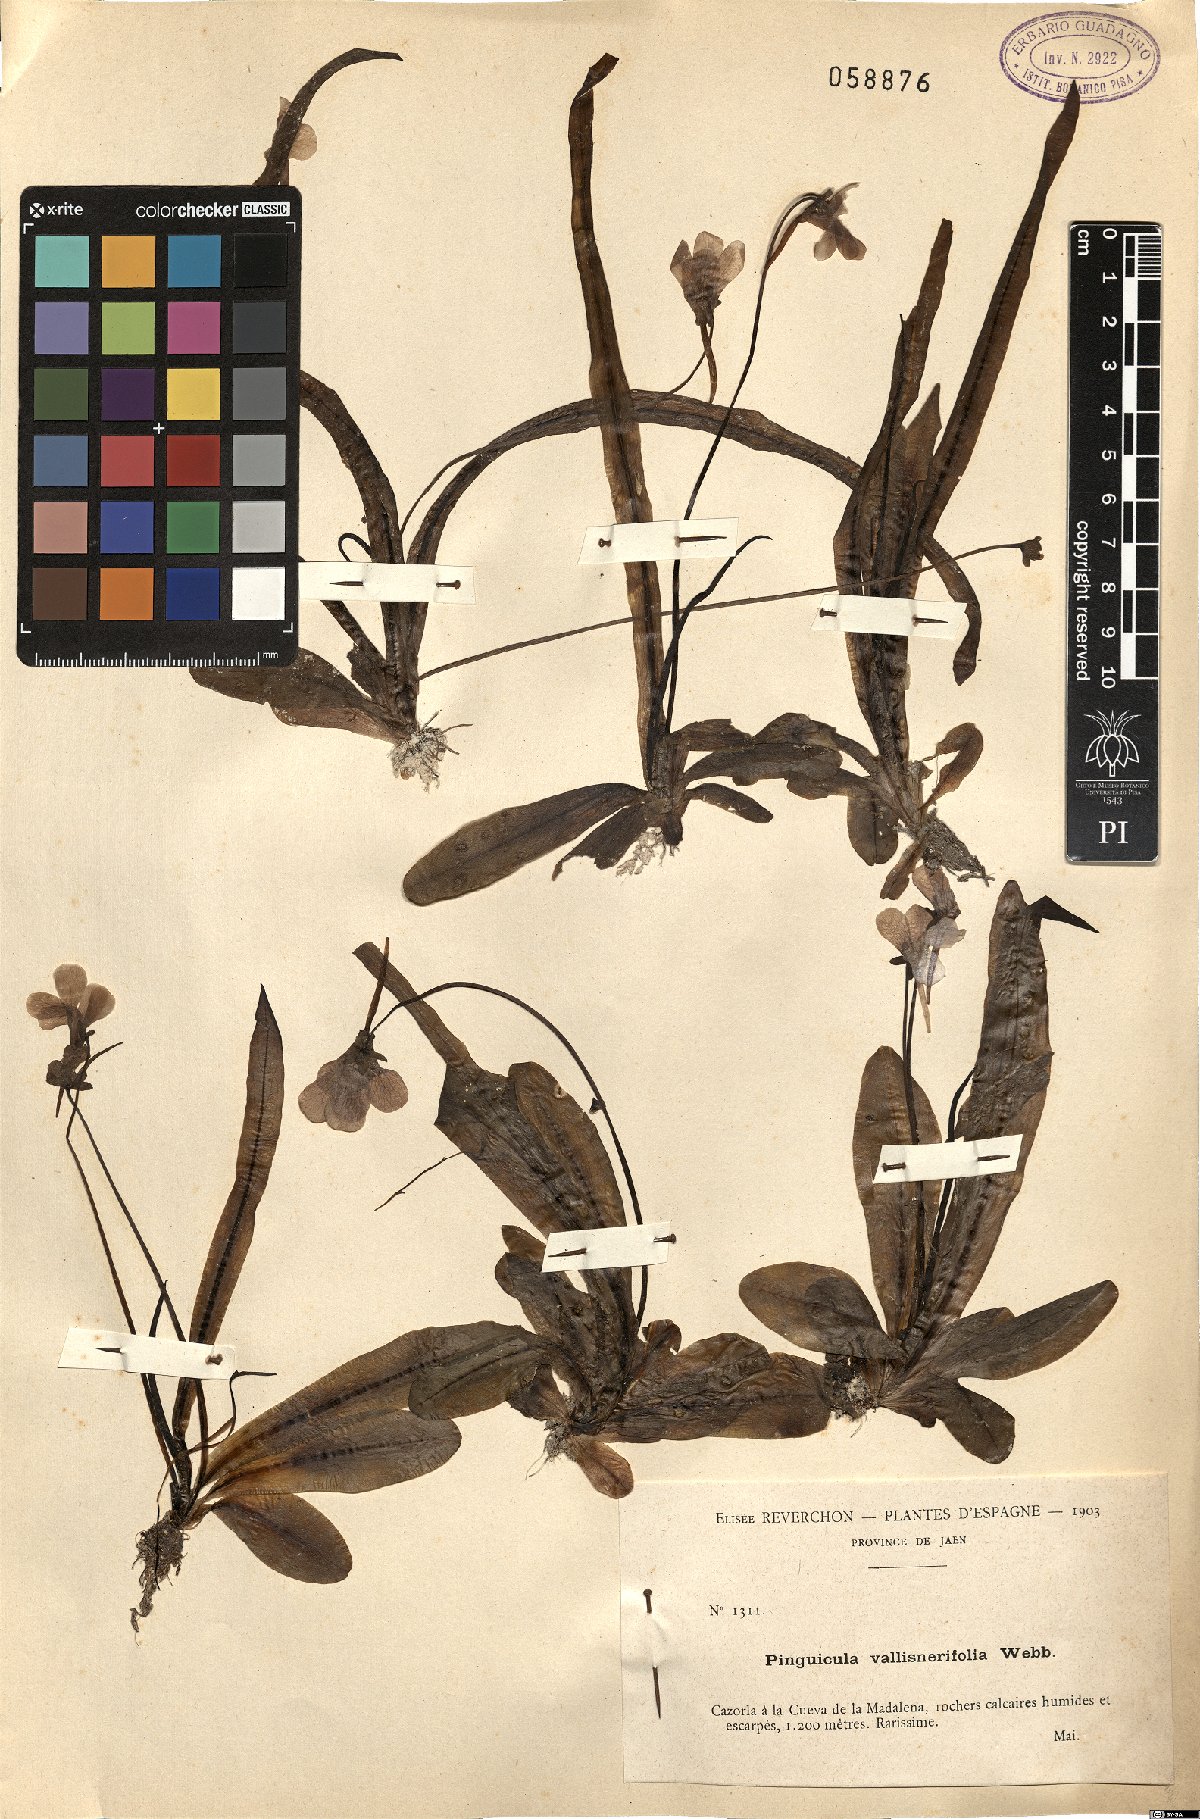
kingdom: Plantae
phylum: Tracheophyta
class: Magnoliopsida
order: Lamiales
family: Lentibulariaceae
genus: Pinguicula
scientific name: Pinguicula vallisneriifolia
